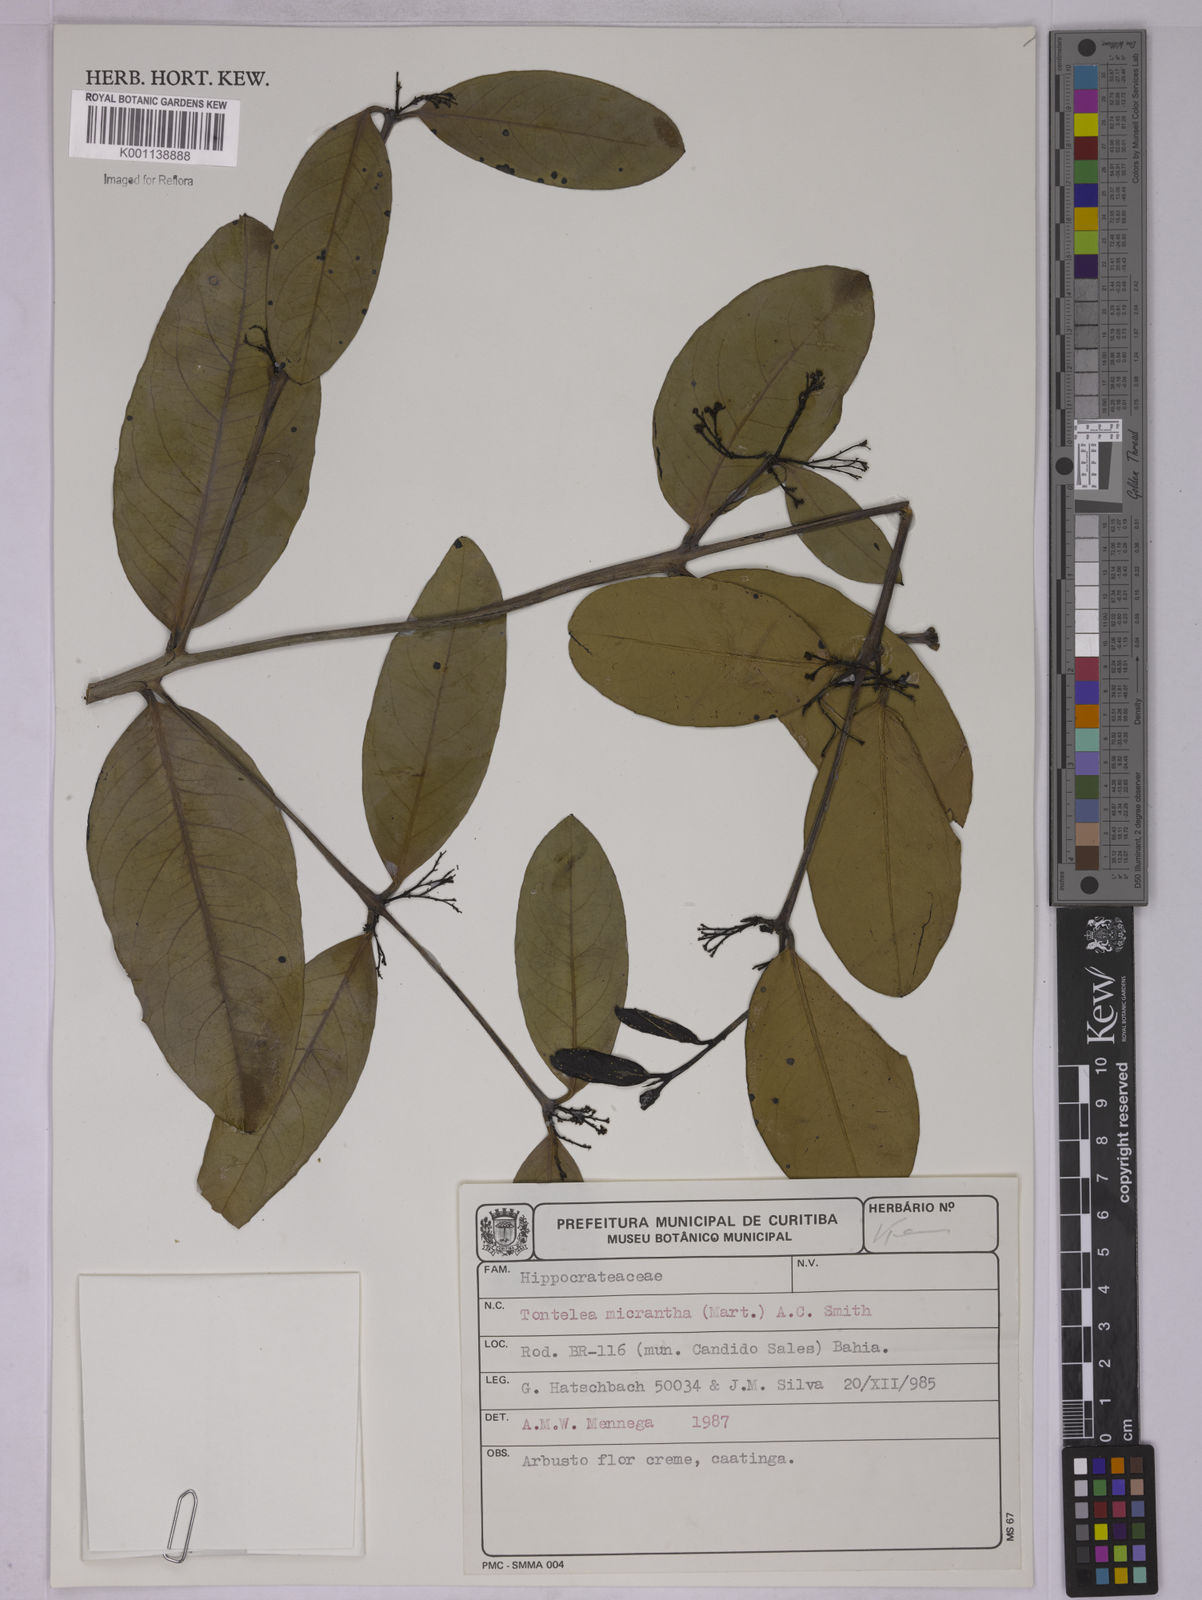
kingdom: Plantae
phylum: Tracheophyta
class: Magnoliopsida
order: Celastrales
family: Celastraceae
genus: Tontelea
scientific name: Tontelea micrantha
